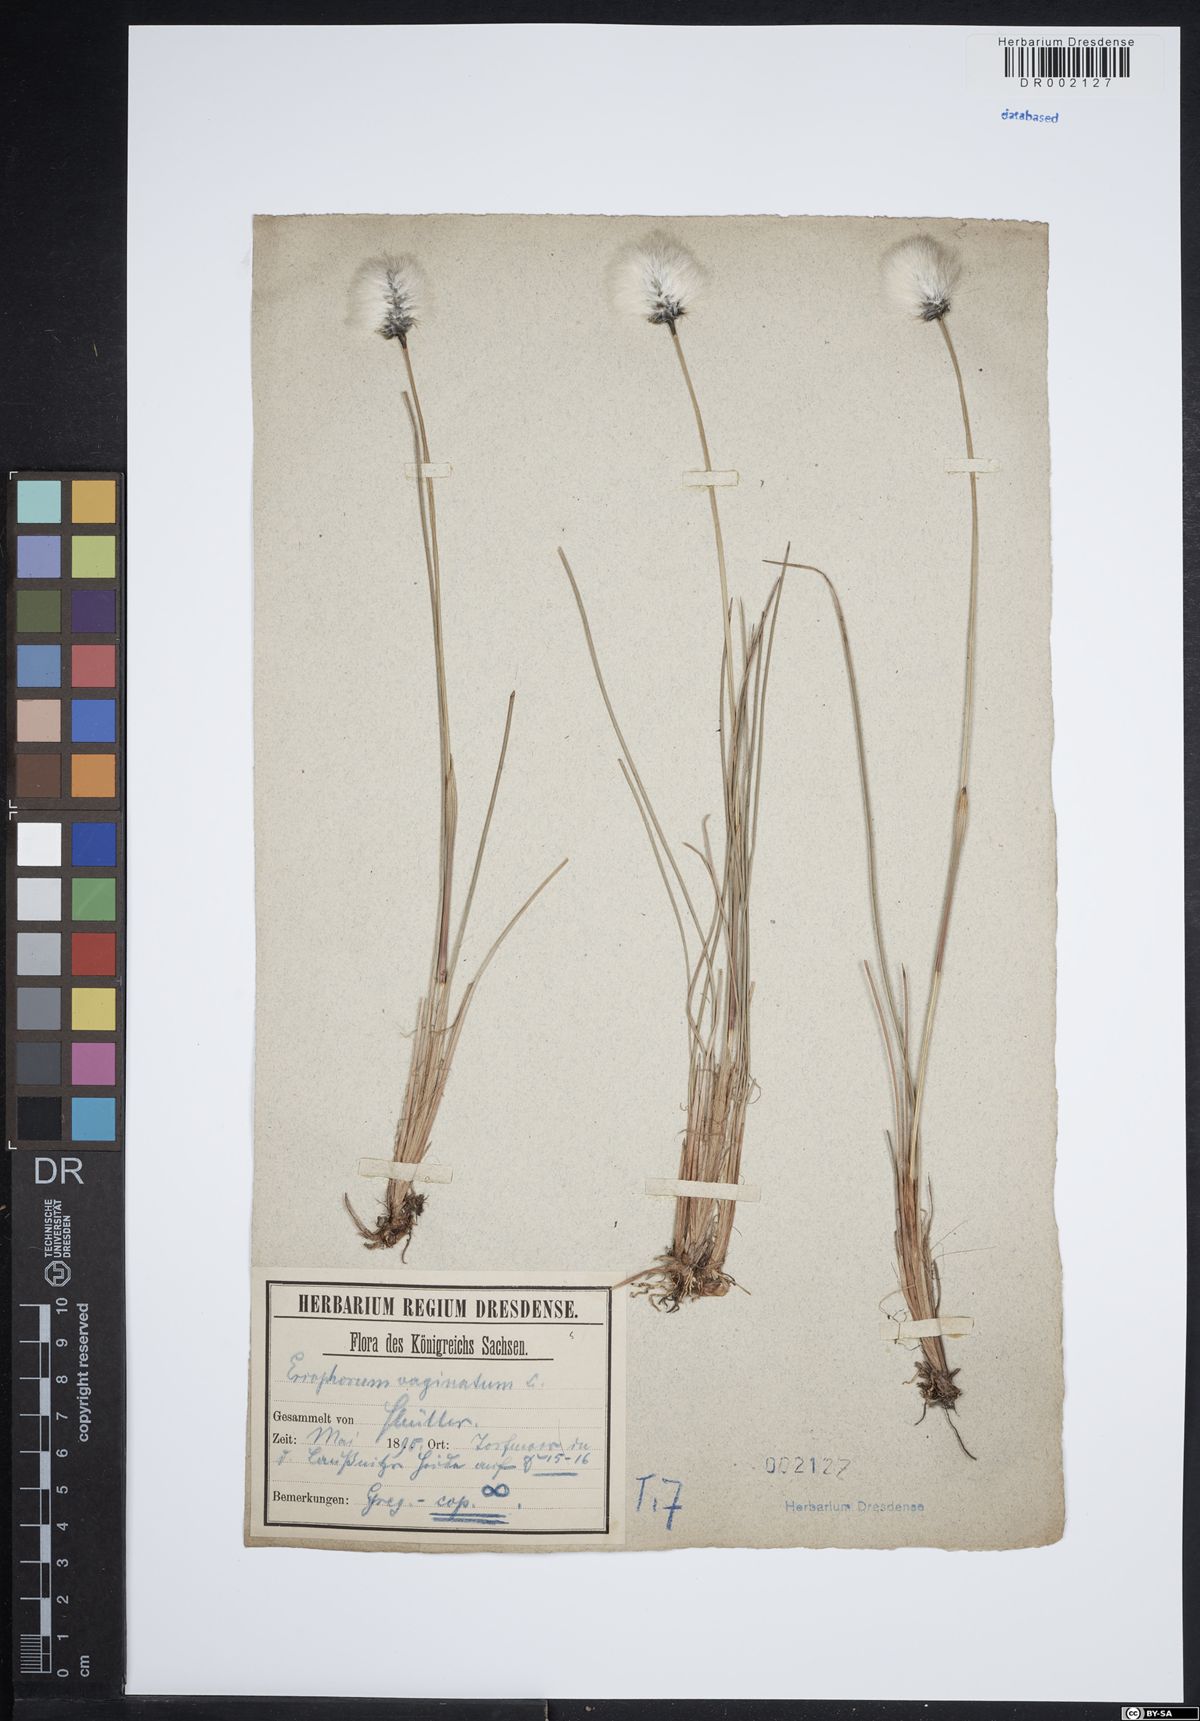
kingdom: Plantae
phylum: Tracheophyta
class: Liliopsida
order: Poales
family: Cyperaceae
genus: Eriophorum
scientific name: Eriophorum vaginatum
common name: Hare's-tail cottongrass
